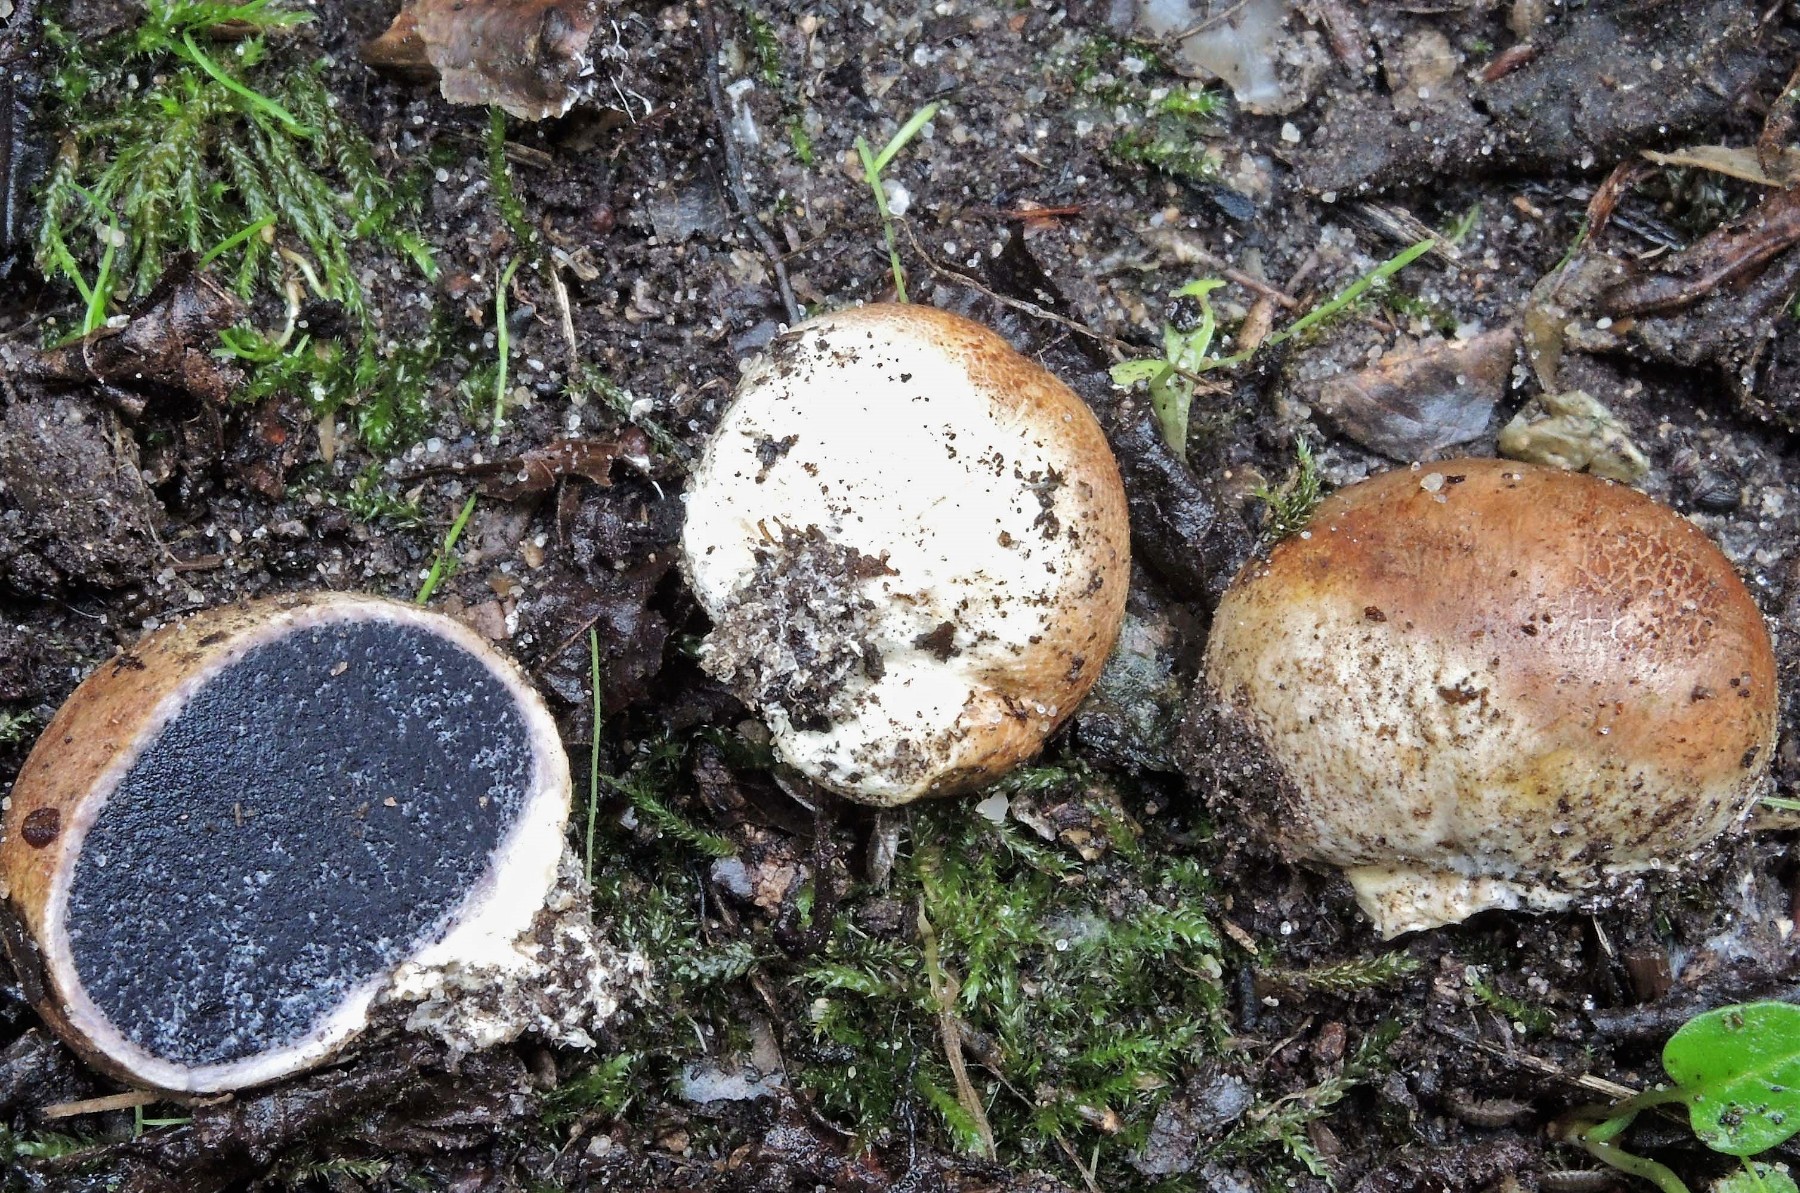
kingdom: Fungi
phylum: Basidiomycota
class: Agaricomycetes
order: Boletales
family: Sclerodermataceae
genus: Scleroderma
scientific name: Scleroderma bovista
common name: bovist-bruskbold
